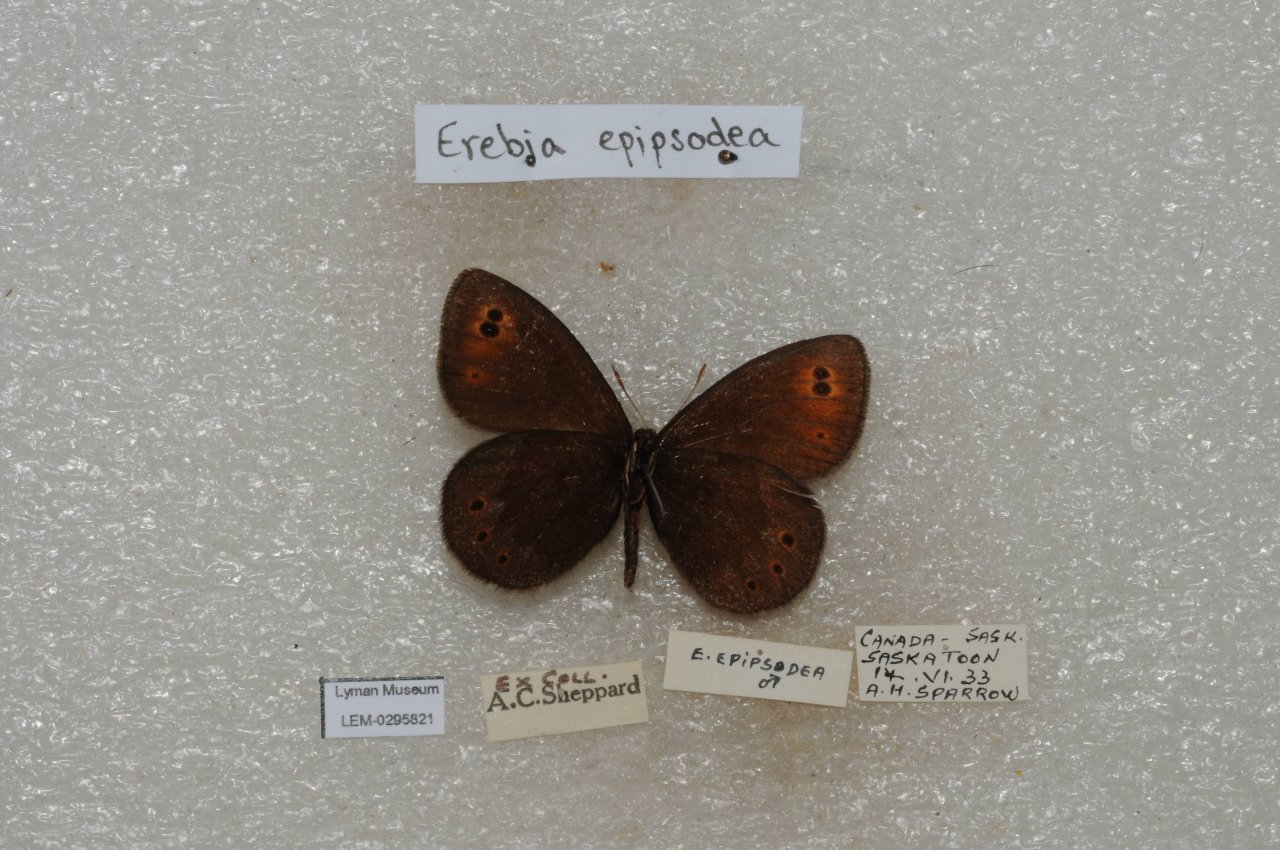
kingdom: Animalia
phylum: Arthropoda
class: Insecta
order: Lepidoptera
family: Nymphalidae
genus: Erebia
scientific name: Erebia epipsodea
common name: Common Alpine
